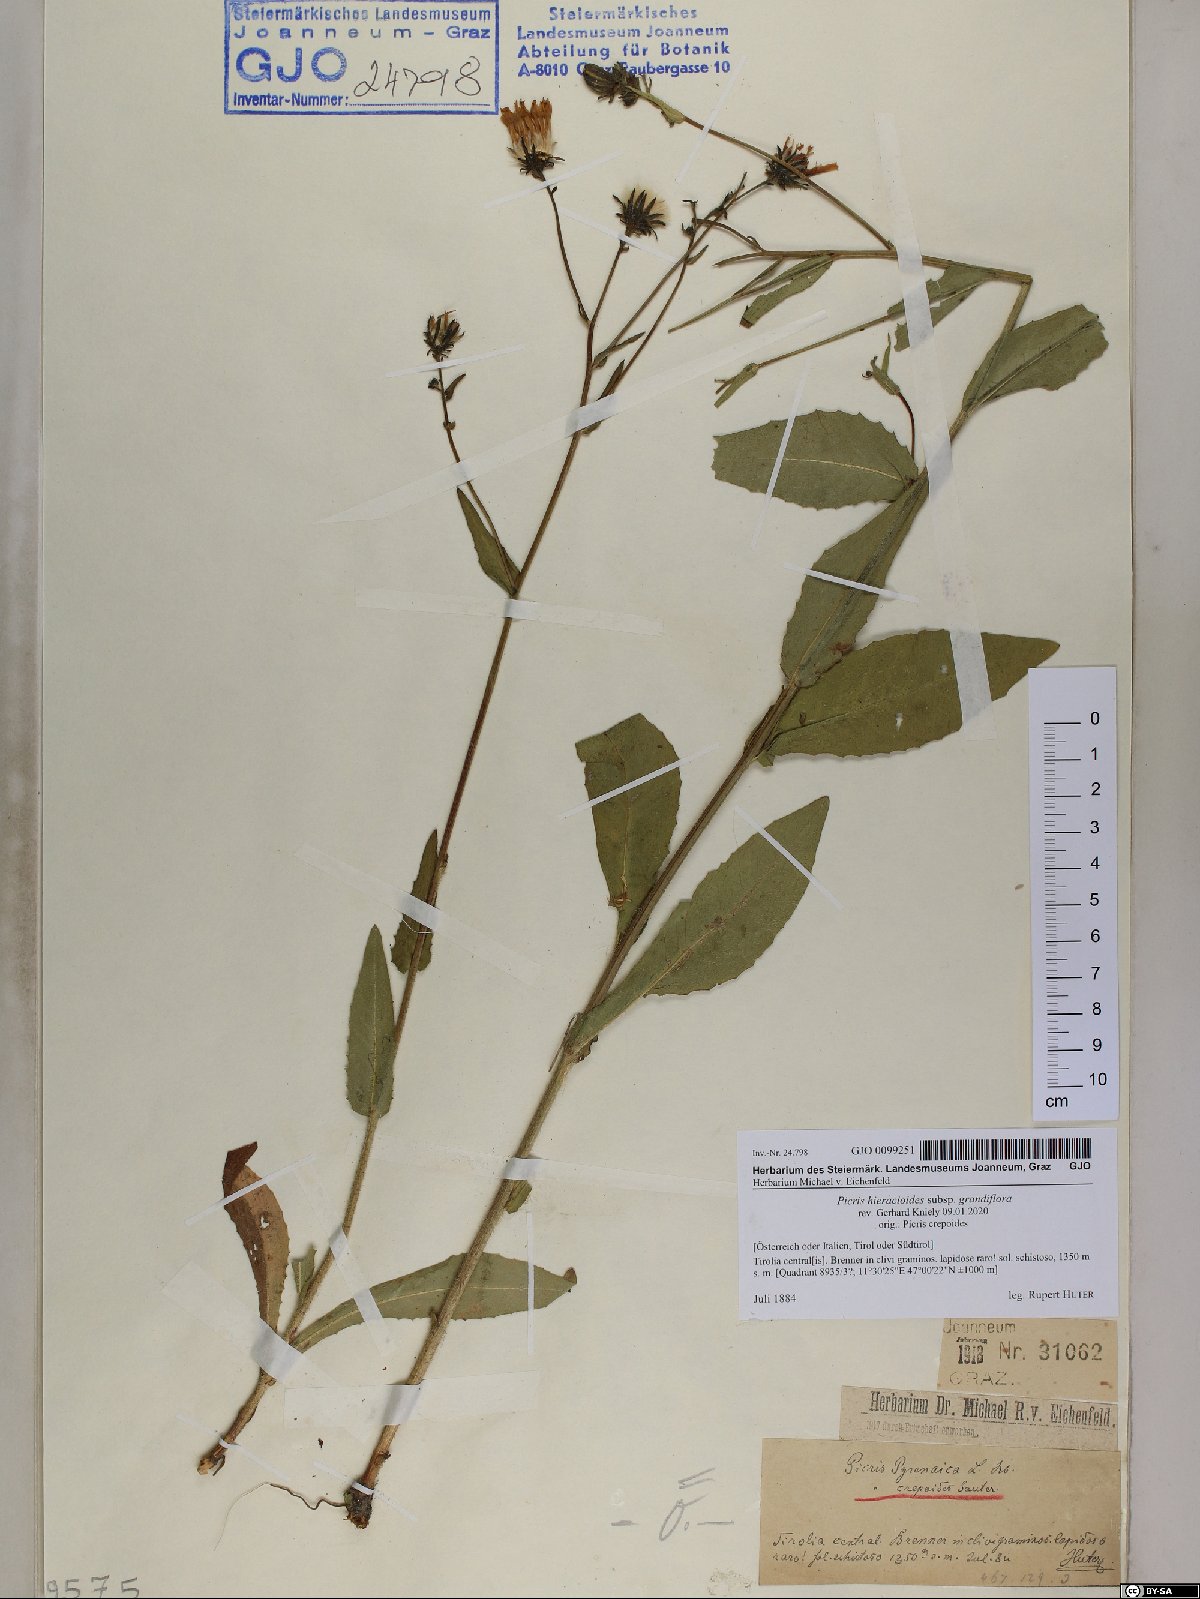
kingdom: Plantae
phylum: Tracheophyta
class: Magnoliopsida
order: Asterales
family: Asteraceae
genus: Picris
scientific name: Picris hieracioides
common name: Hawkweed oxtongue
